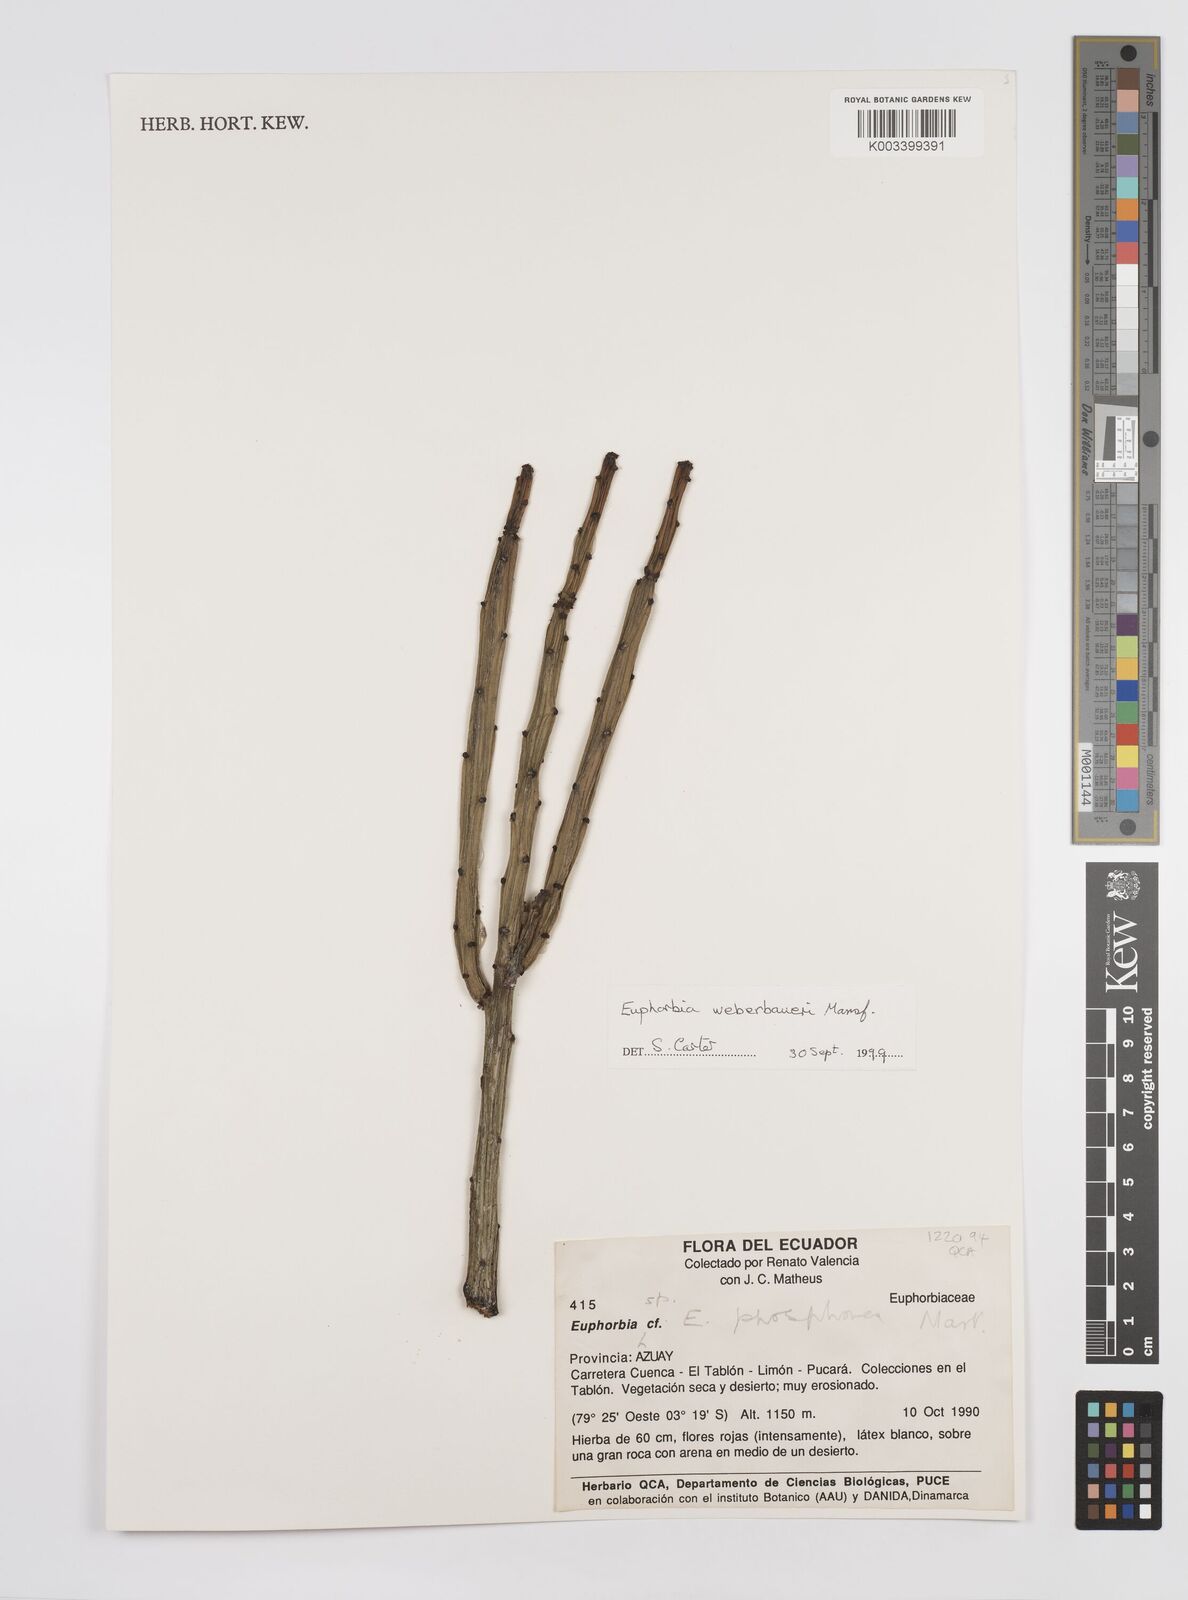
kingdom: Plantae
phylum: Tracheophyta
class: Magnoliopsida
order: Malpighiales
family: Euphorbiaceae
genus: Euphorbia
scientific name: Euphorbia weberbaueri
